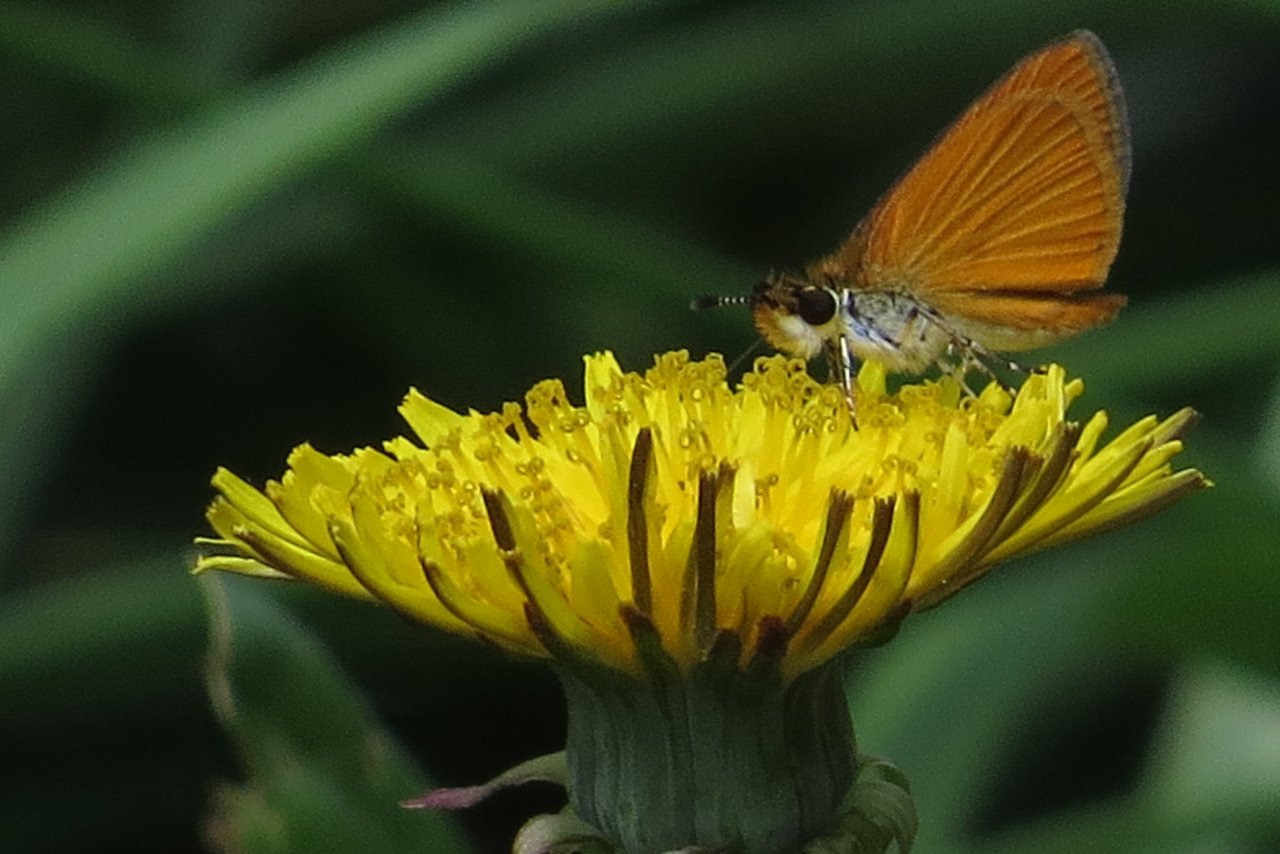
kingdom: Animalia
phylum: Arthropoda
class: Insecta
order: Lepidoptera
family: Hesperiidae
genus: Ancyloxypha
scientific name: Ancyloxypha numitor
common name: Least Skipper
